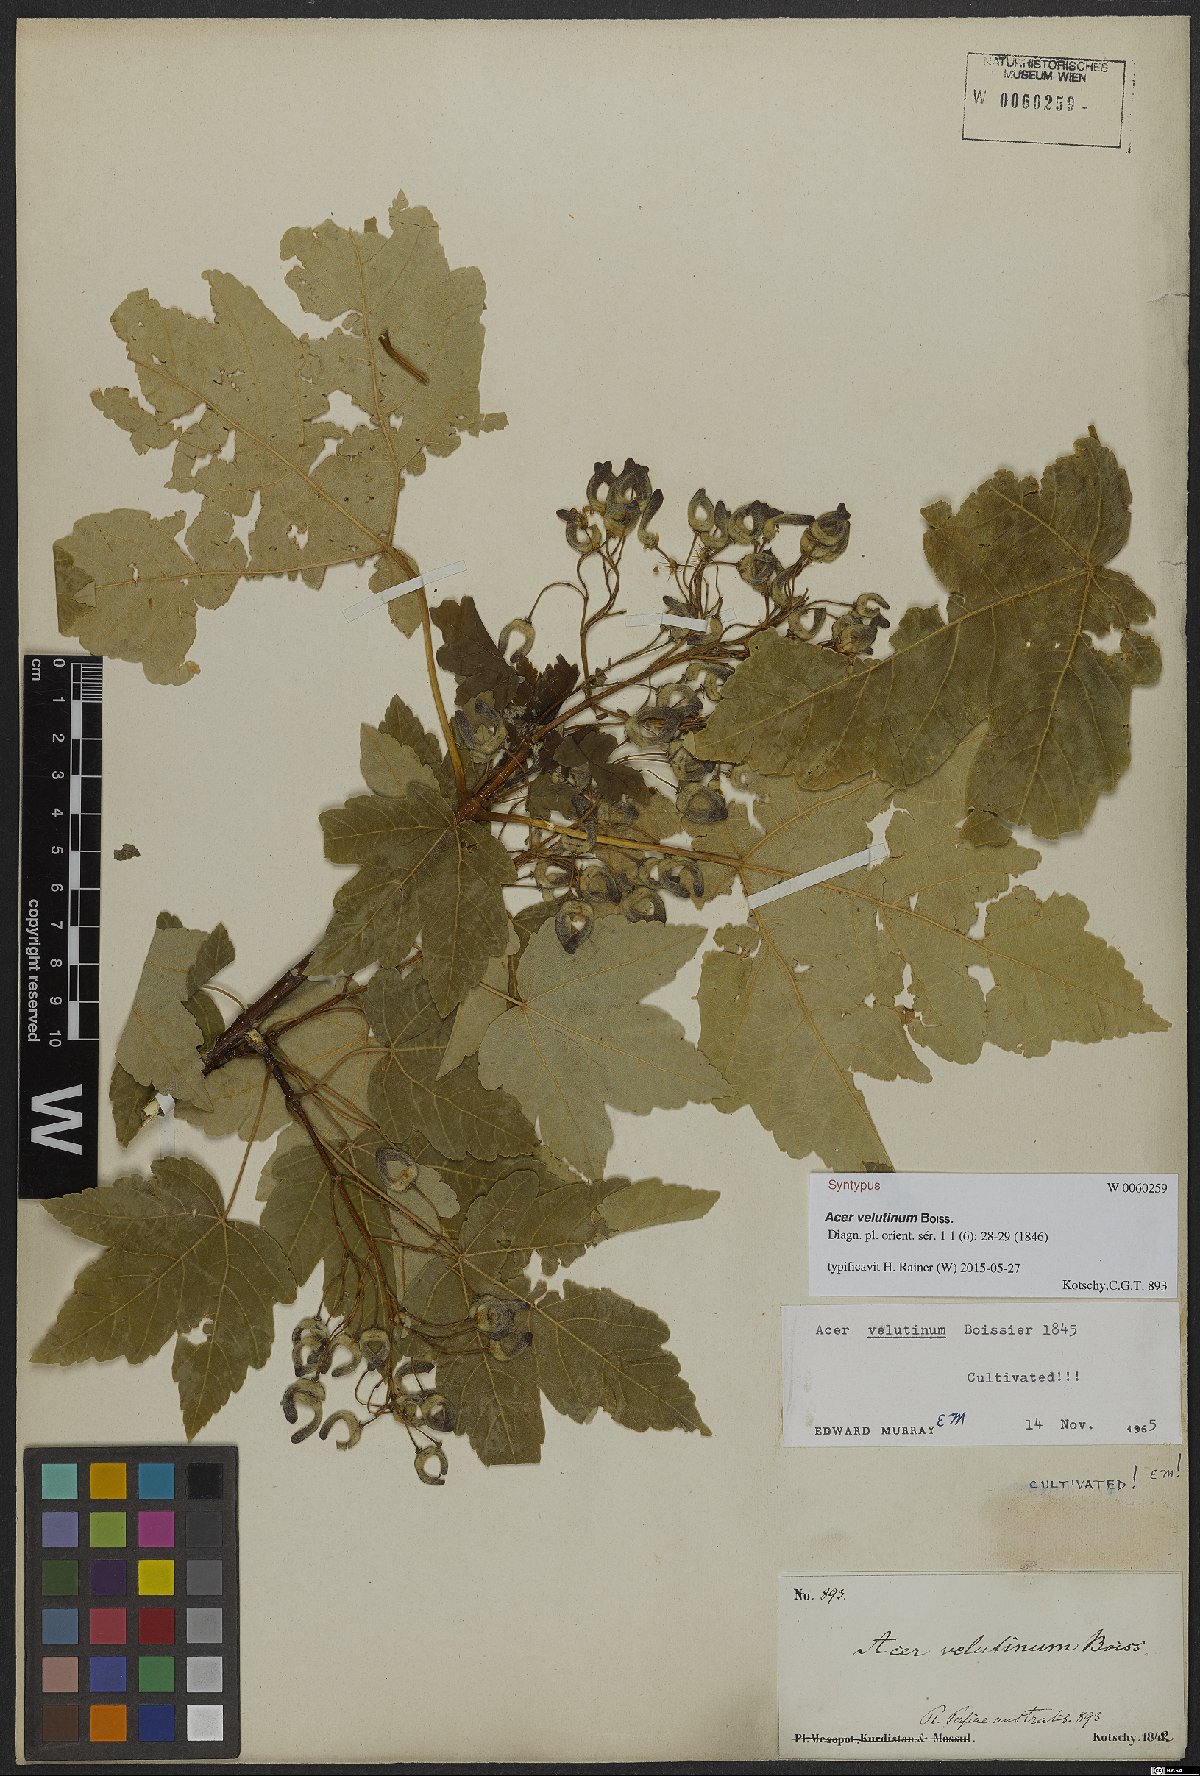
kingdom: Plantae
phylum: Tracheophyta
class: Magnoliopsida
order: Sapindales
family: Sapindaceae
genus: Acer
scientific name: Acer velutinum
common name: Velvet maple
